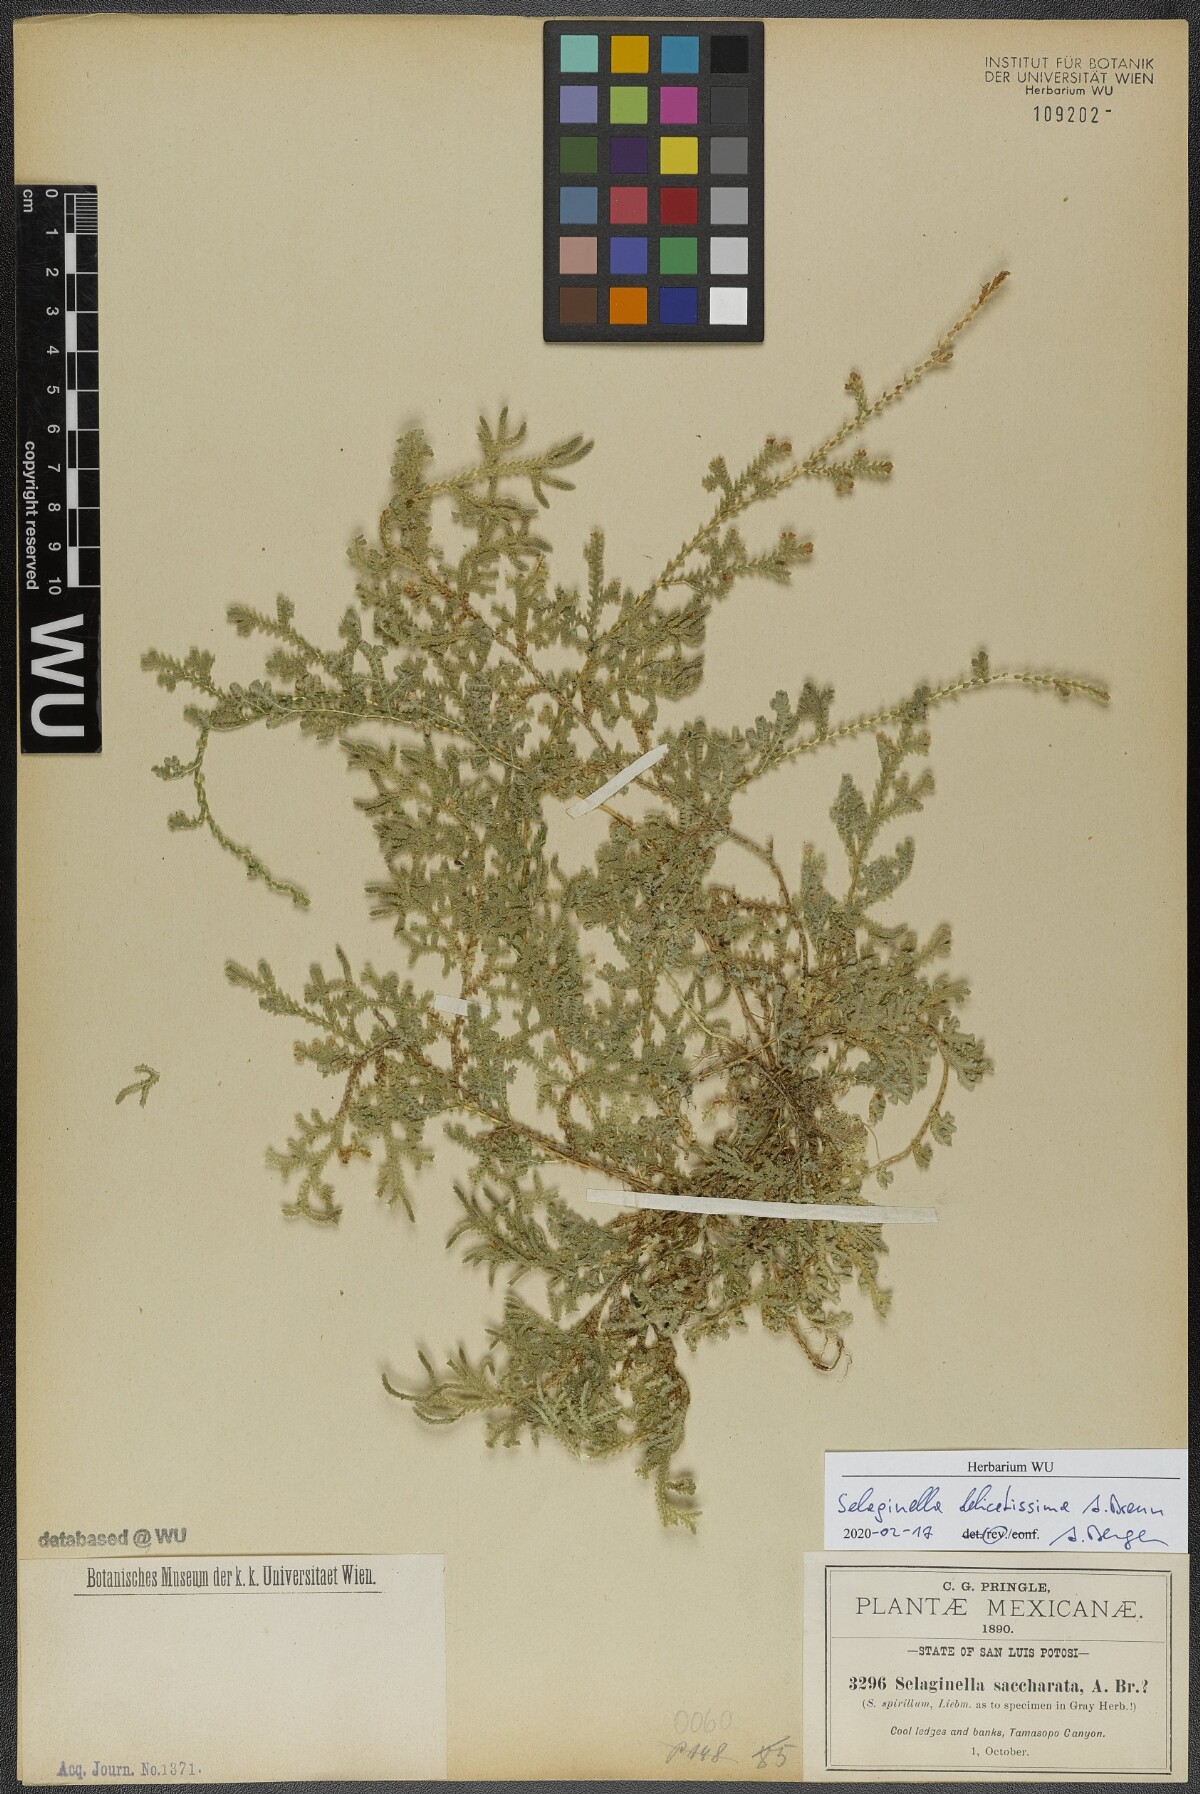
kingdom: Plantae
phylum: Tracheophyta
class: Lycopodiopsida
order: Selaginellales
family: Selaginellaceae
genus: Selaginella
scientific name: Selaginella delicatissima
